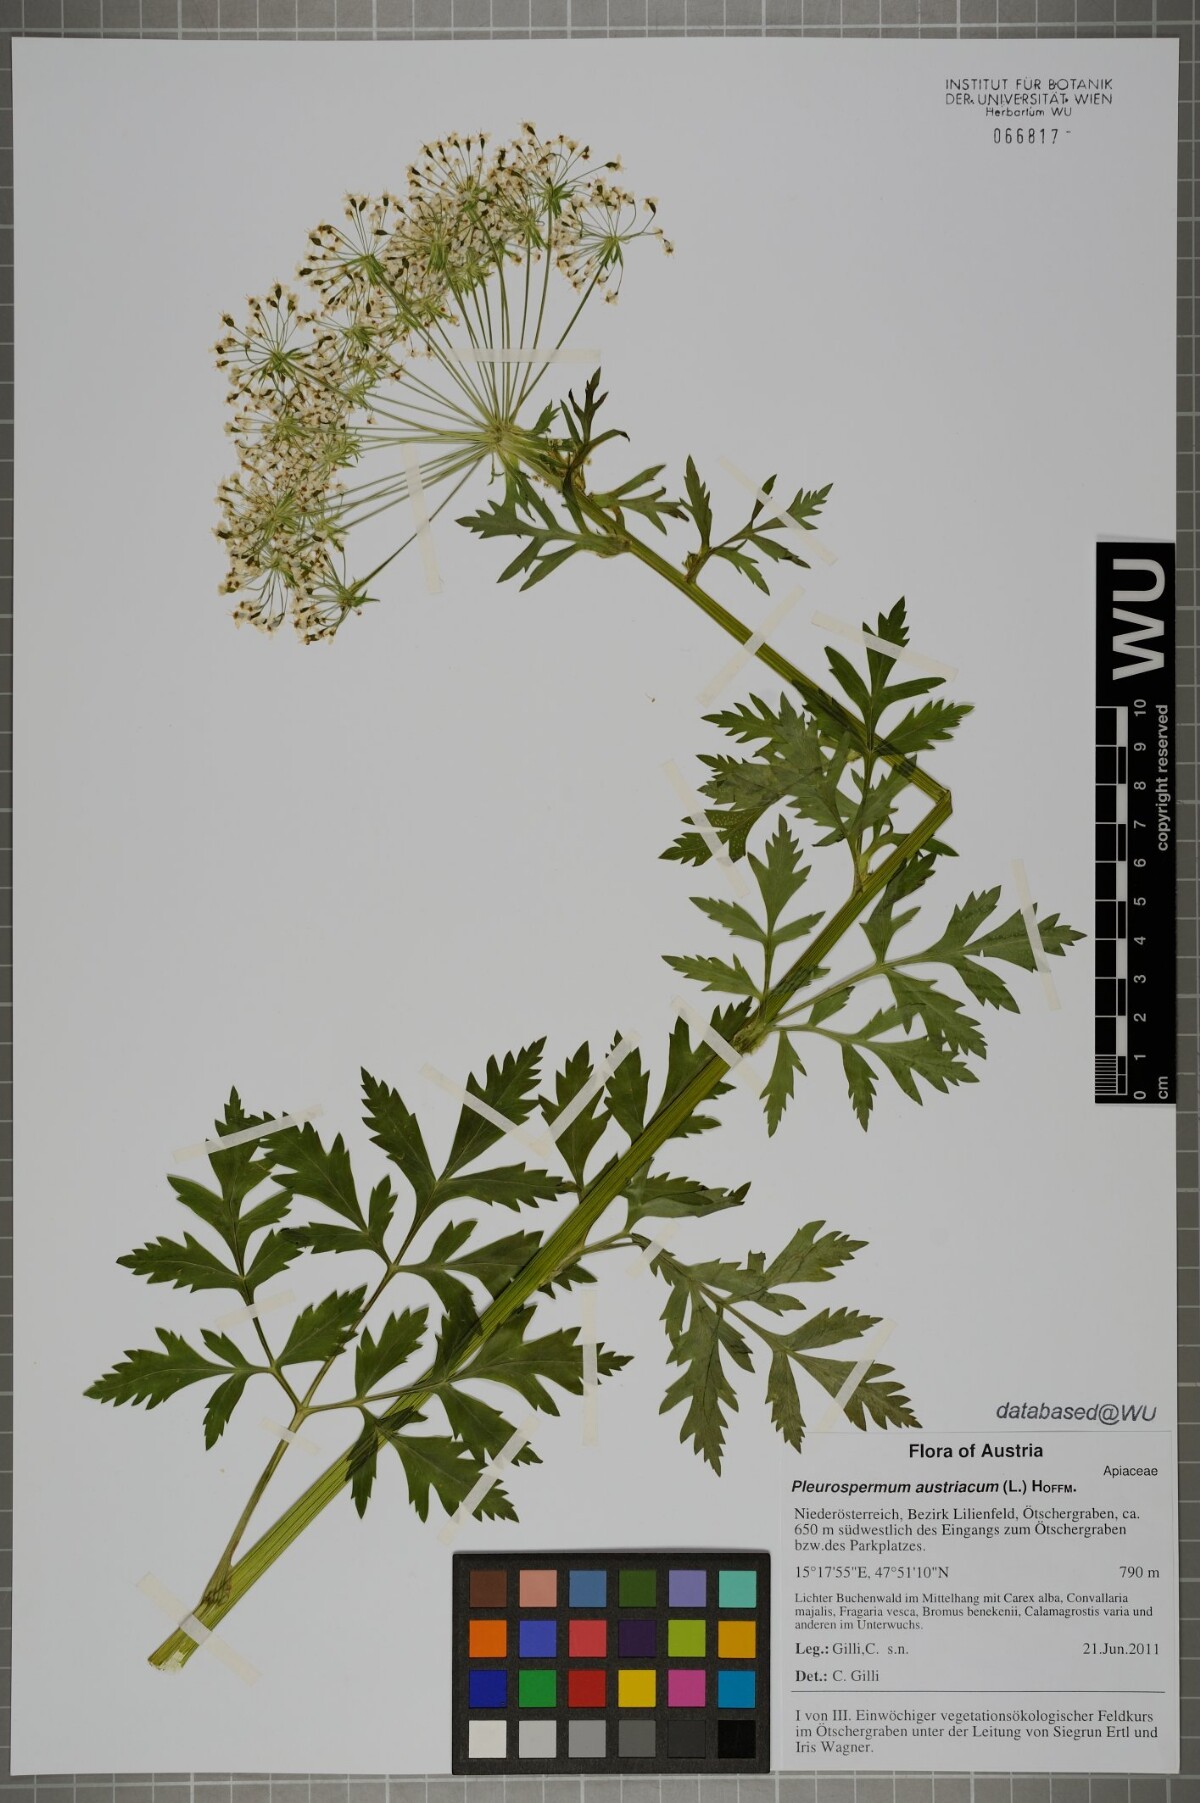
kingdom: Plantae
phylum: Tracheophyta
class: Magnoliopsida
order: Apiales
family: Apiaceae
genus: Pleurospermum
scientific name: Pleurospermum austriacum
